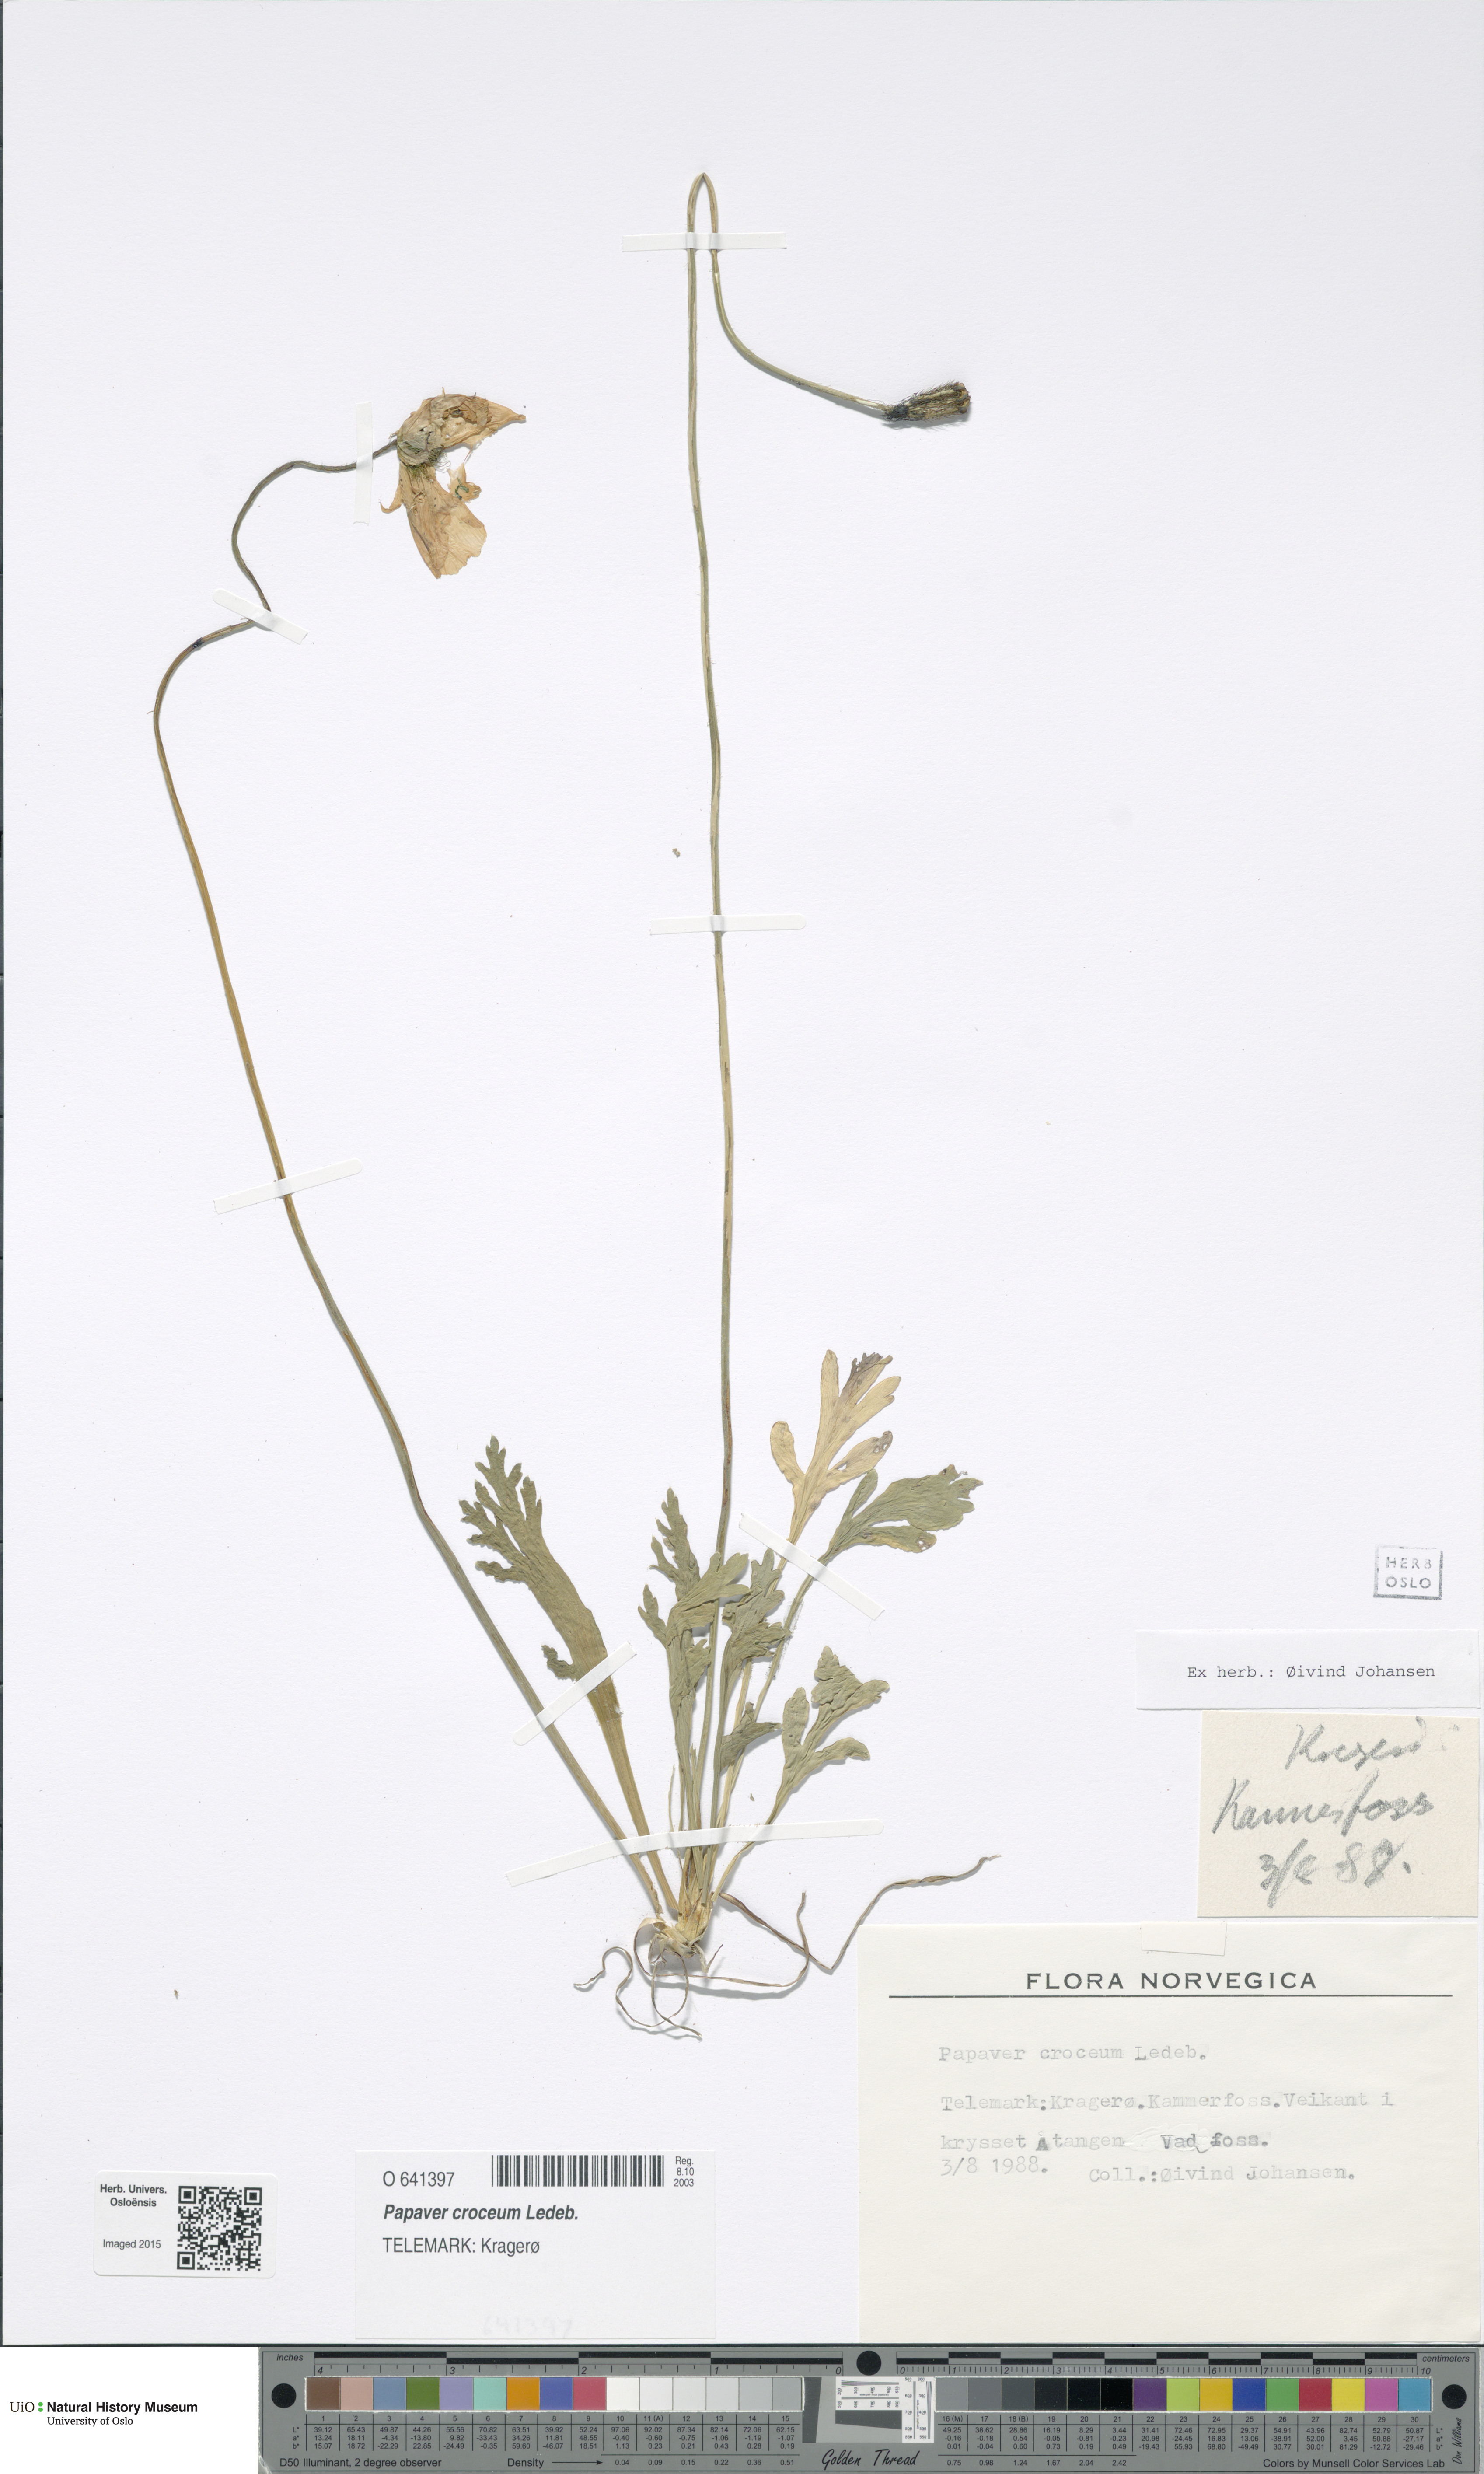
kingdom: Plantae
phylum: Tracheophyta
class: Magnoliopsida
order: Ranunculales
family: Papaveraceae
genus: Papaver
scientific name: Papaver croceum
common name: Siberian poppy
